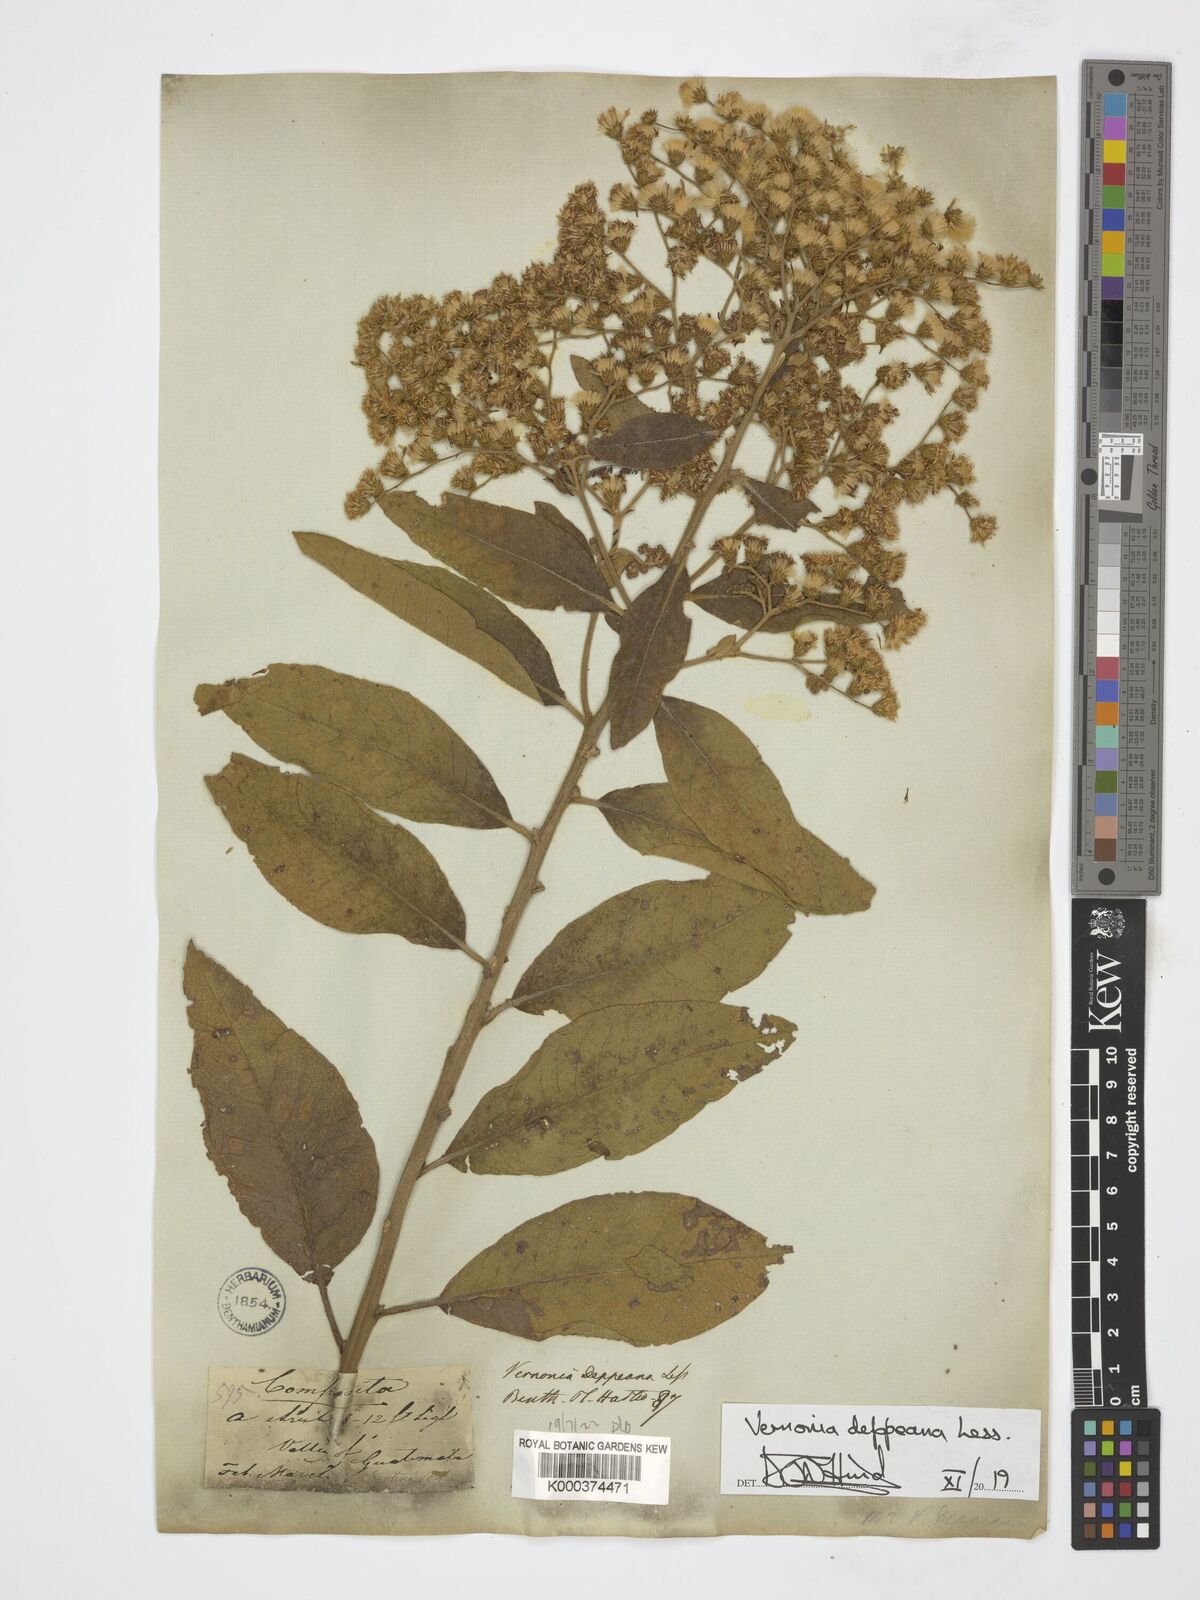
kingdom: Plantae
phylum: Tracheophyta
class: Magnoliopsida
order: Asterales
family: Asteraceae
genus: Vernonanthura
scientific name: Vernonanthura stellaris
